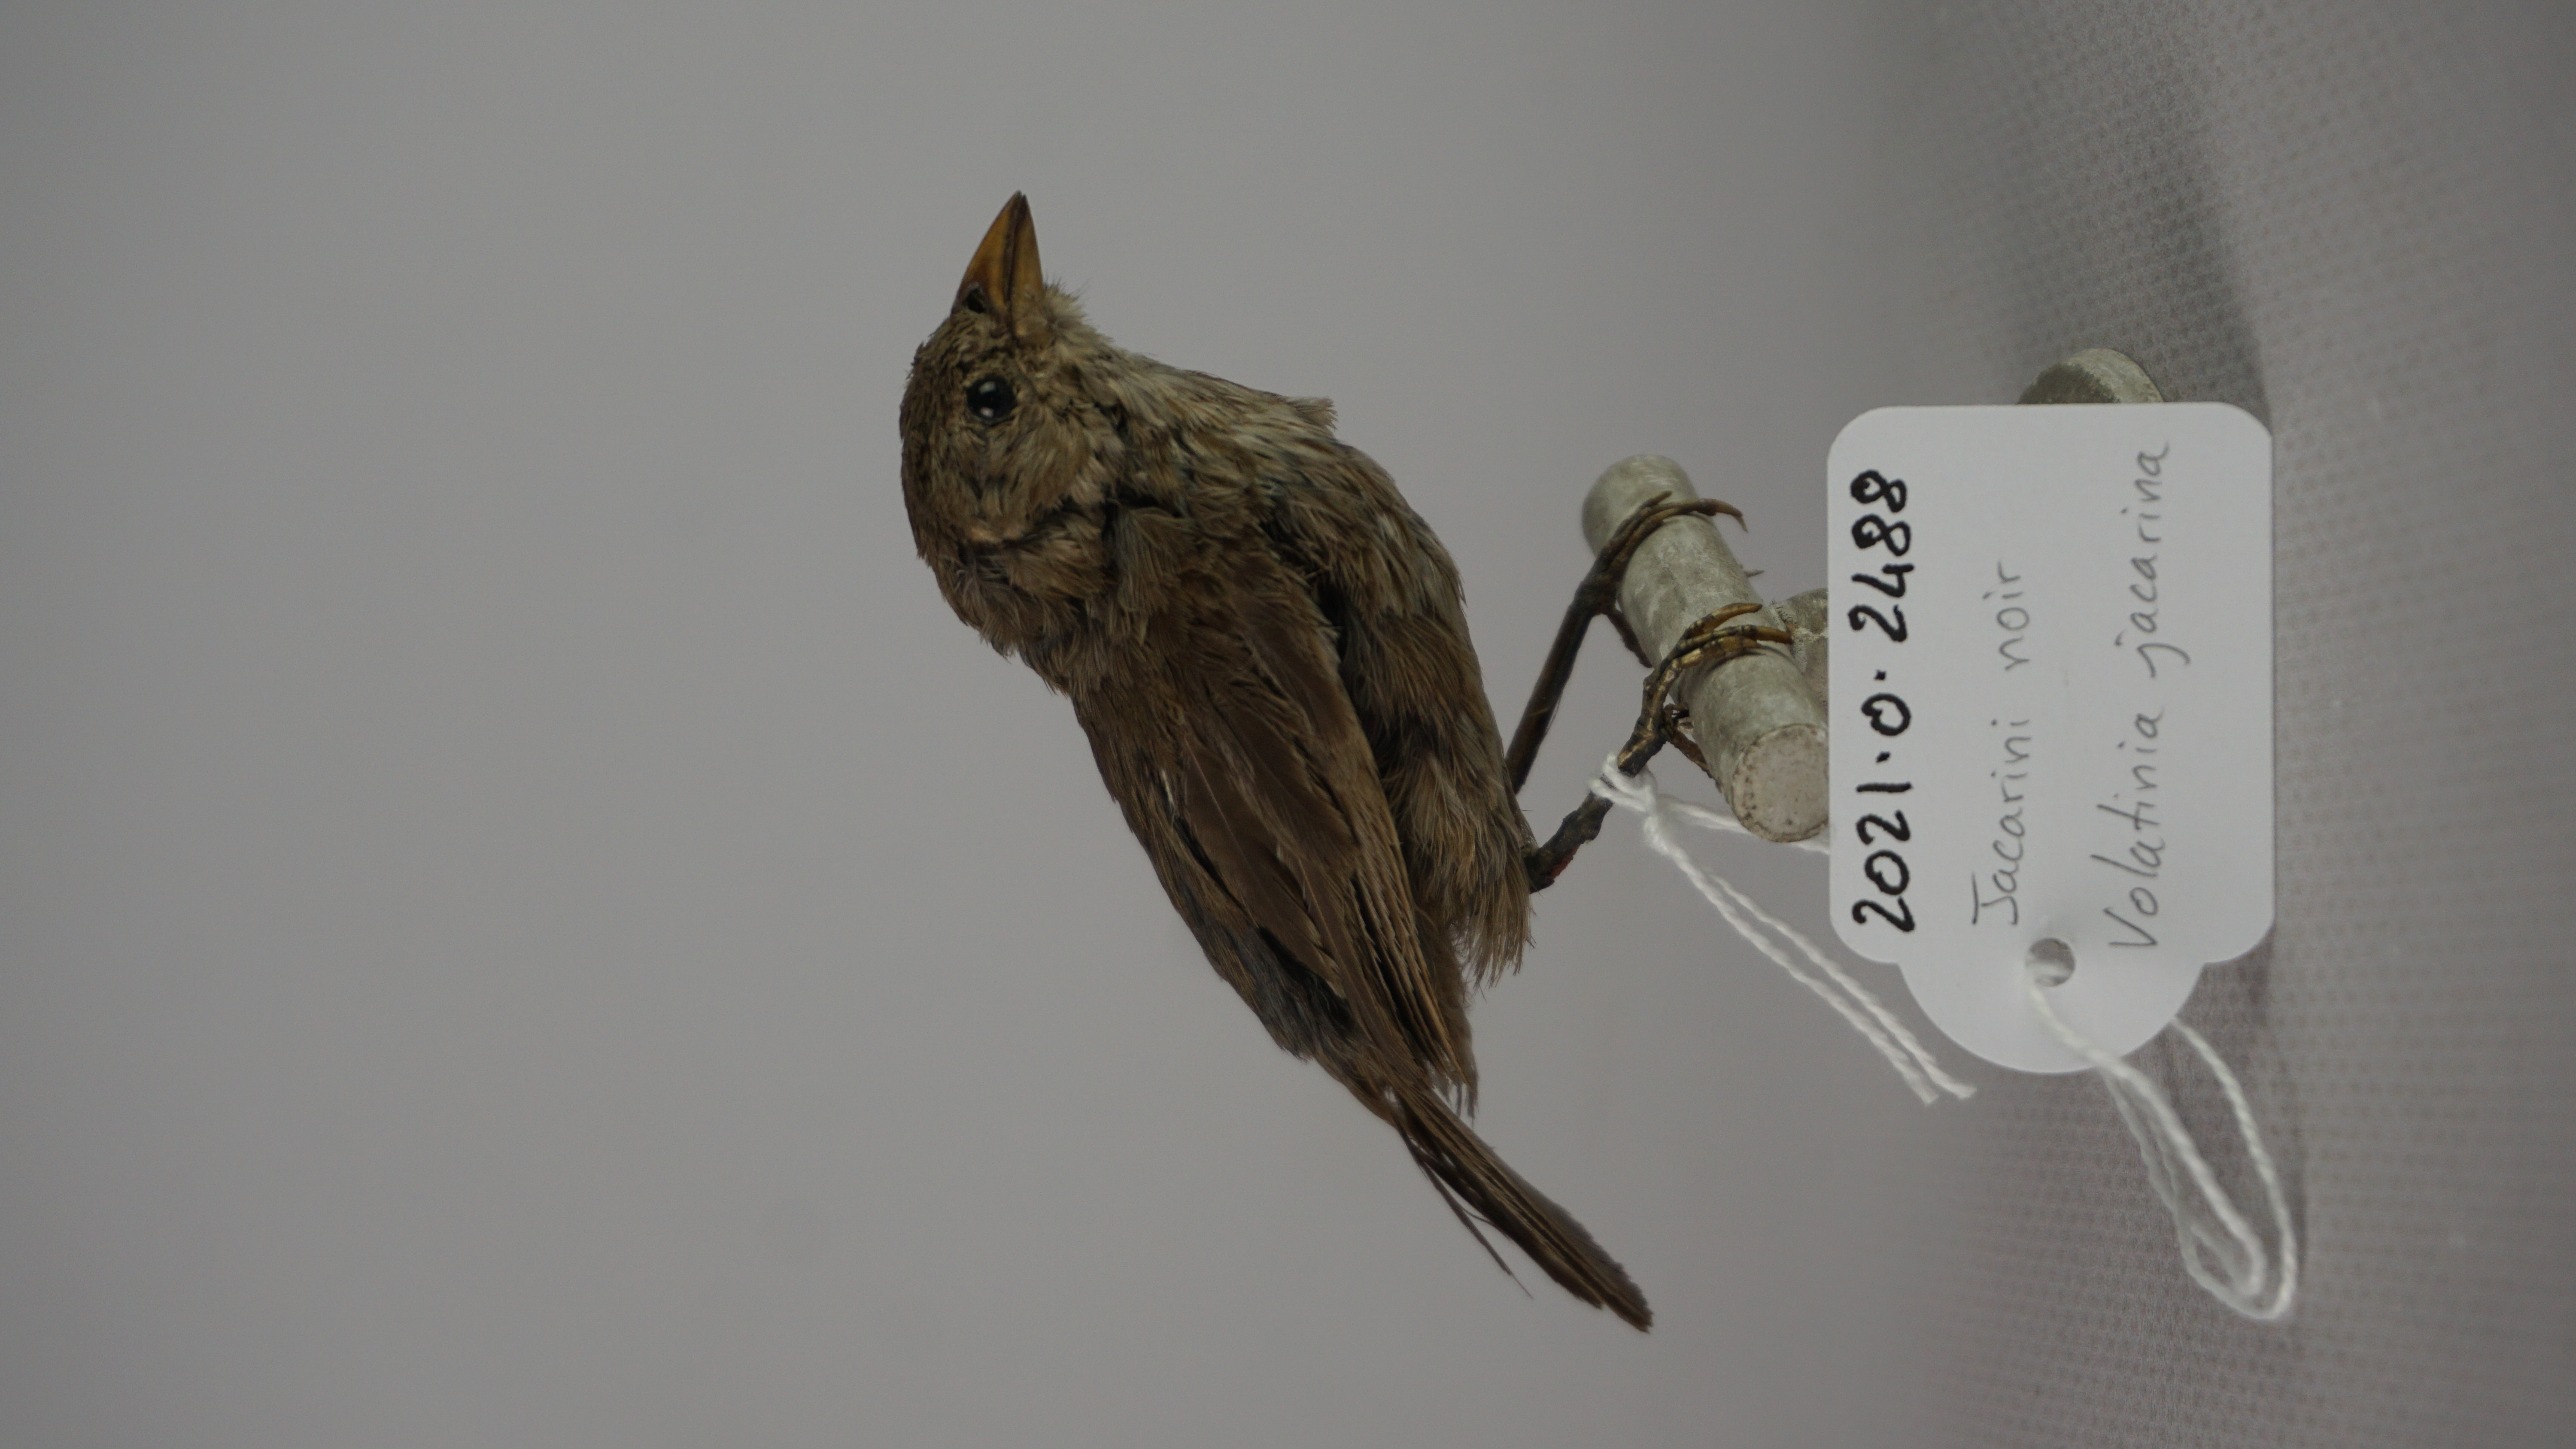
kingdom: Animalia
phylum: Chordata
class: Aves
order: Passeriformes
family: Thraupidae
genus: Volatinia
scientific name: Volatinia jacarina
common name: Blue-black grassquit
